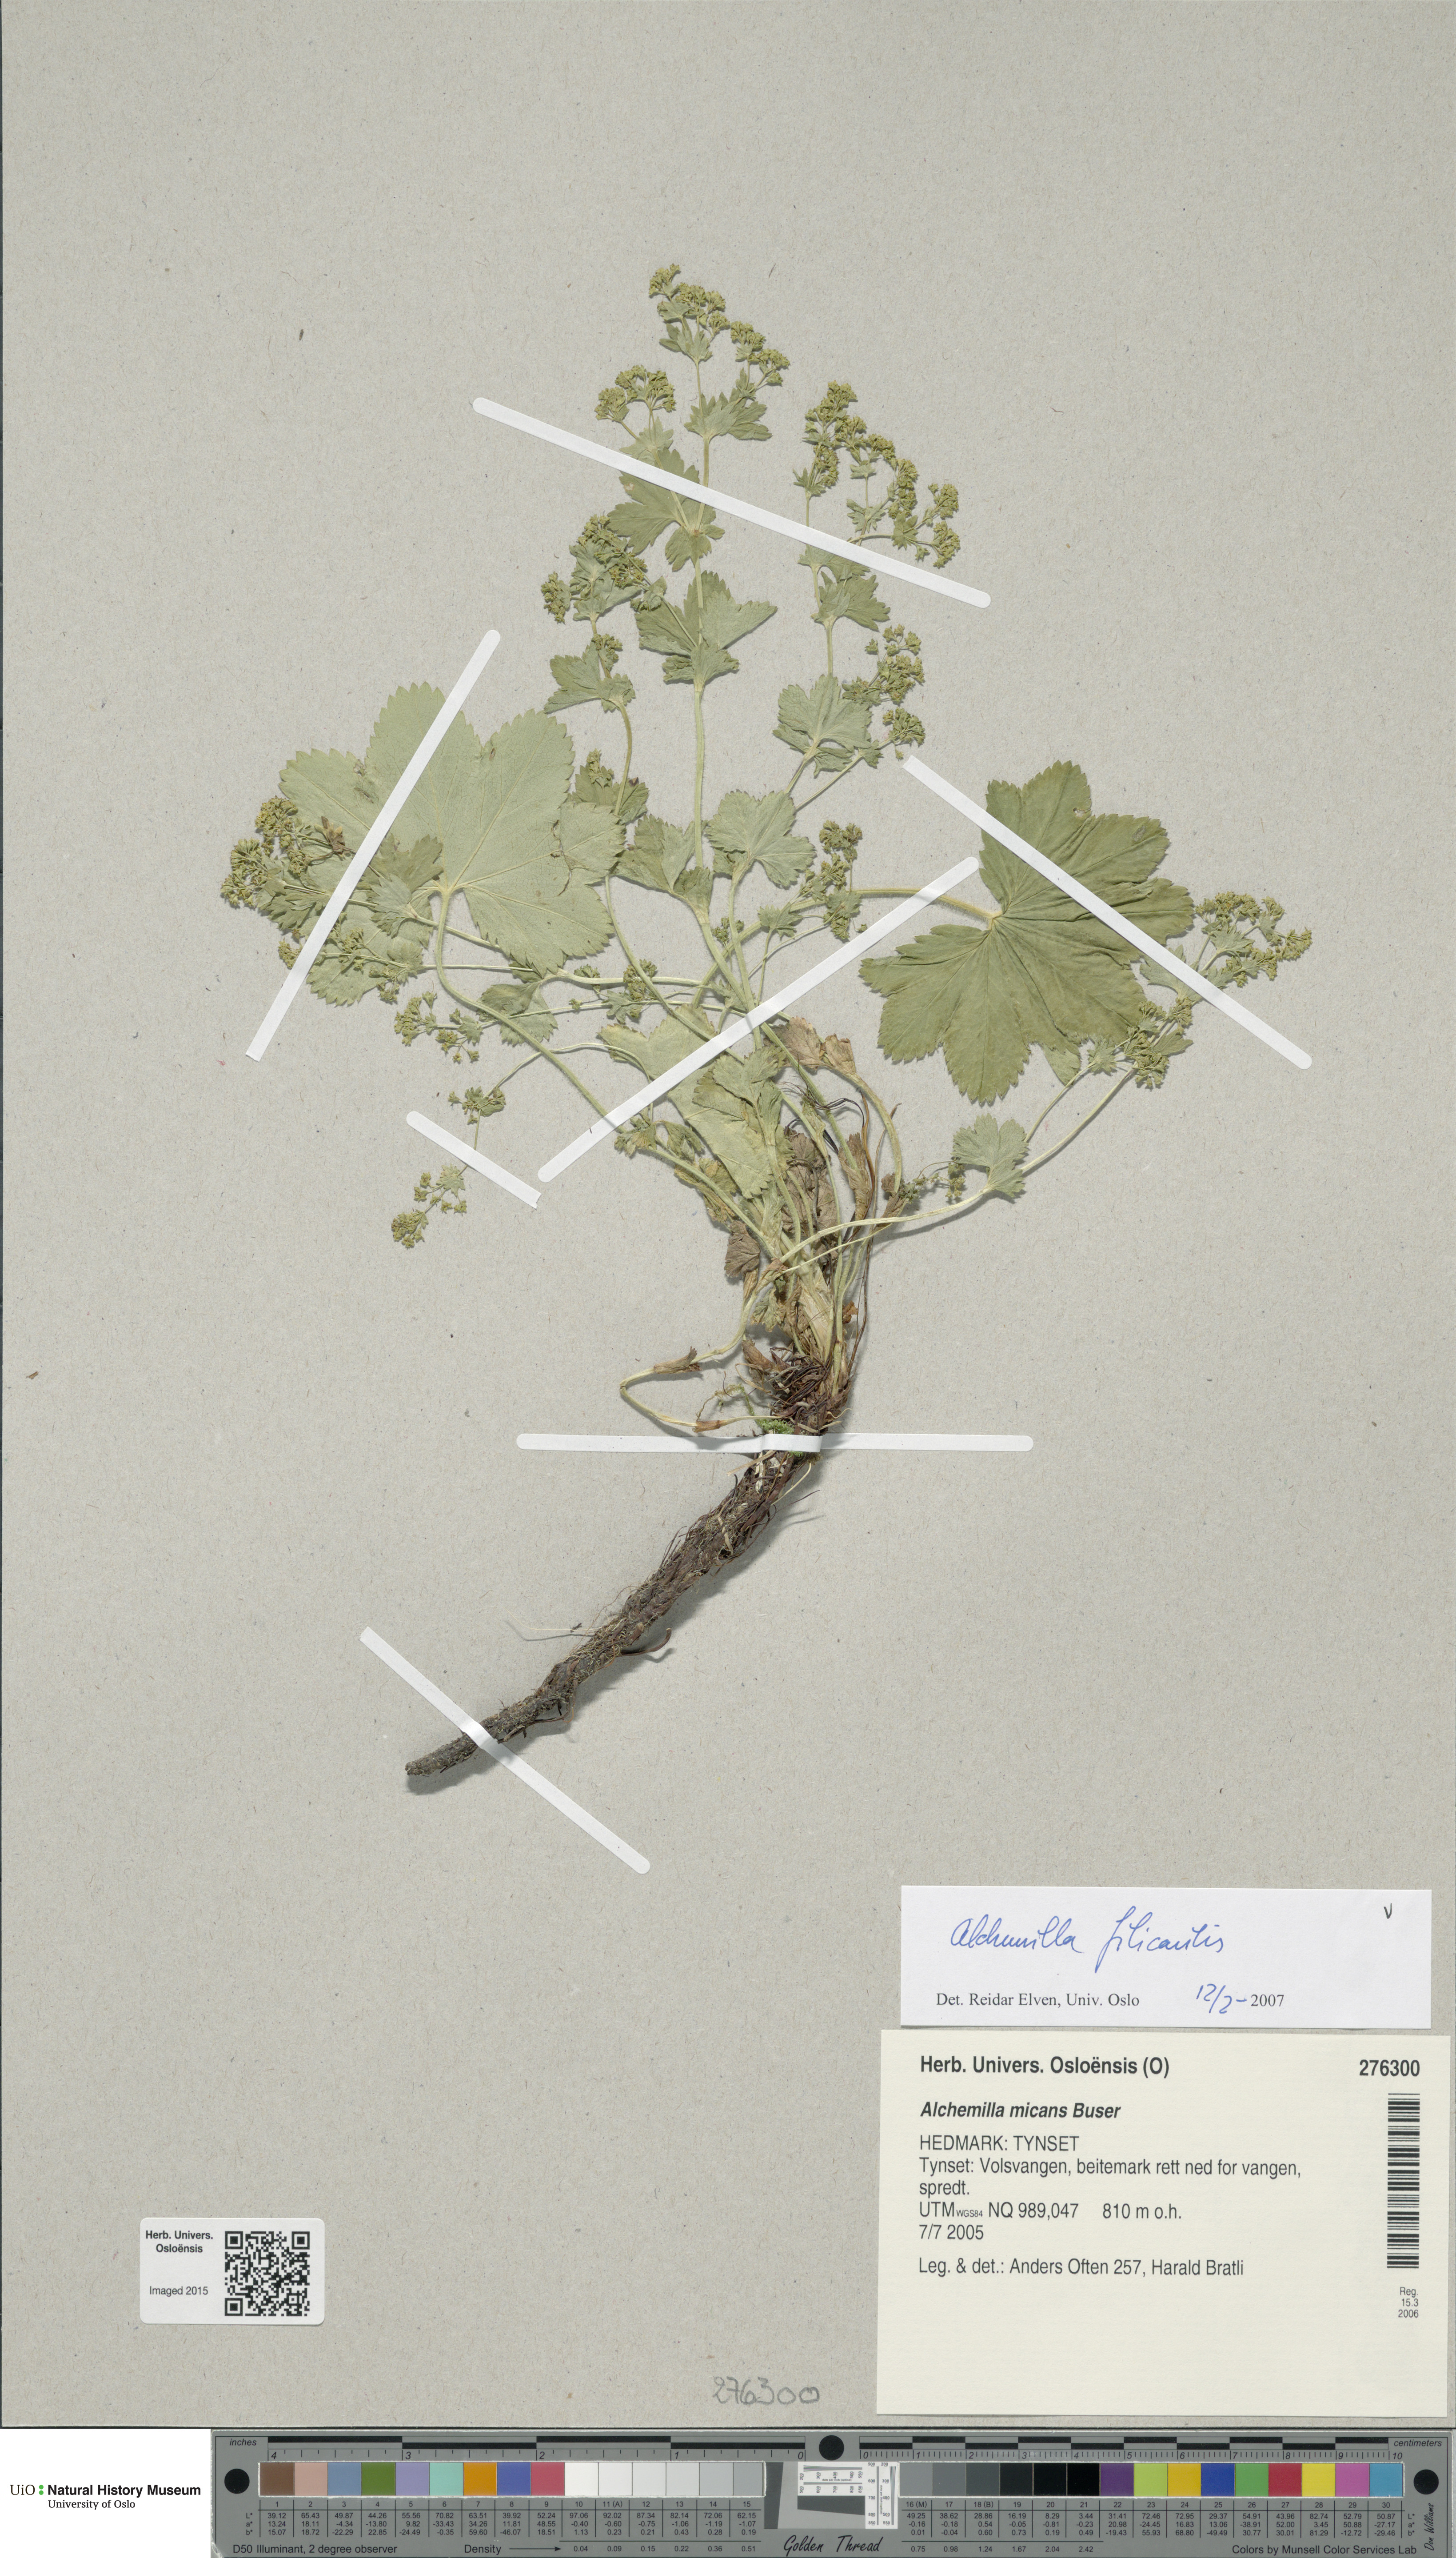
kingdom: Plantae
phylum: Tracheophyta
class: Magnoliopsida
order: Rosales
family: Rosaceae
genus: Alchemilla
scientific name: Alchemilla filicaulis
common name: Hairy lady's-mantle
